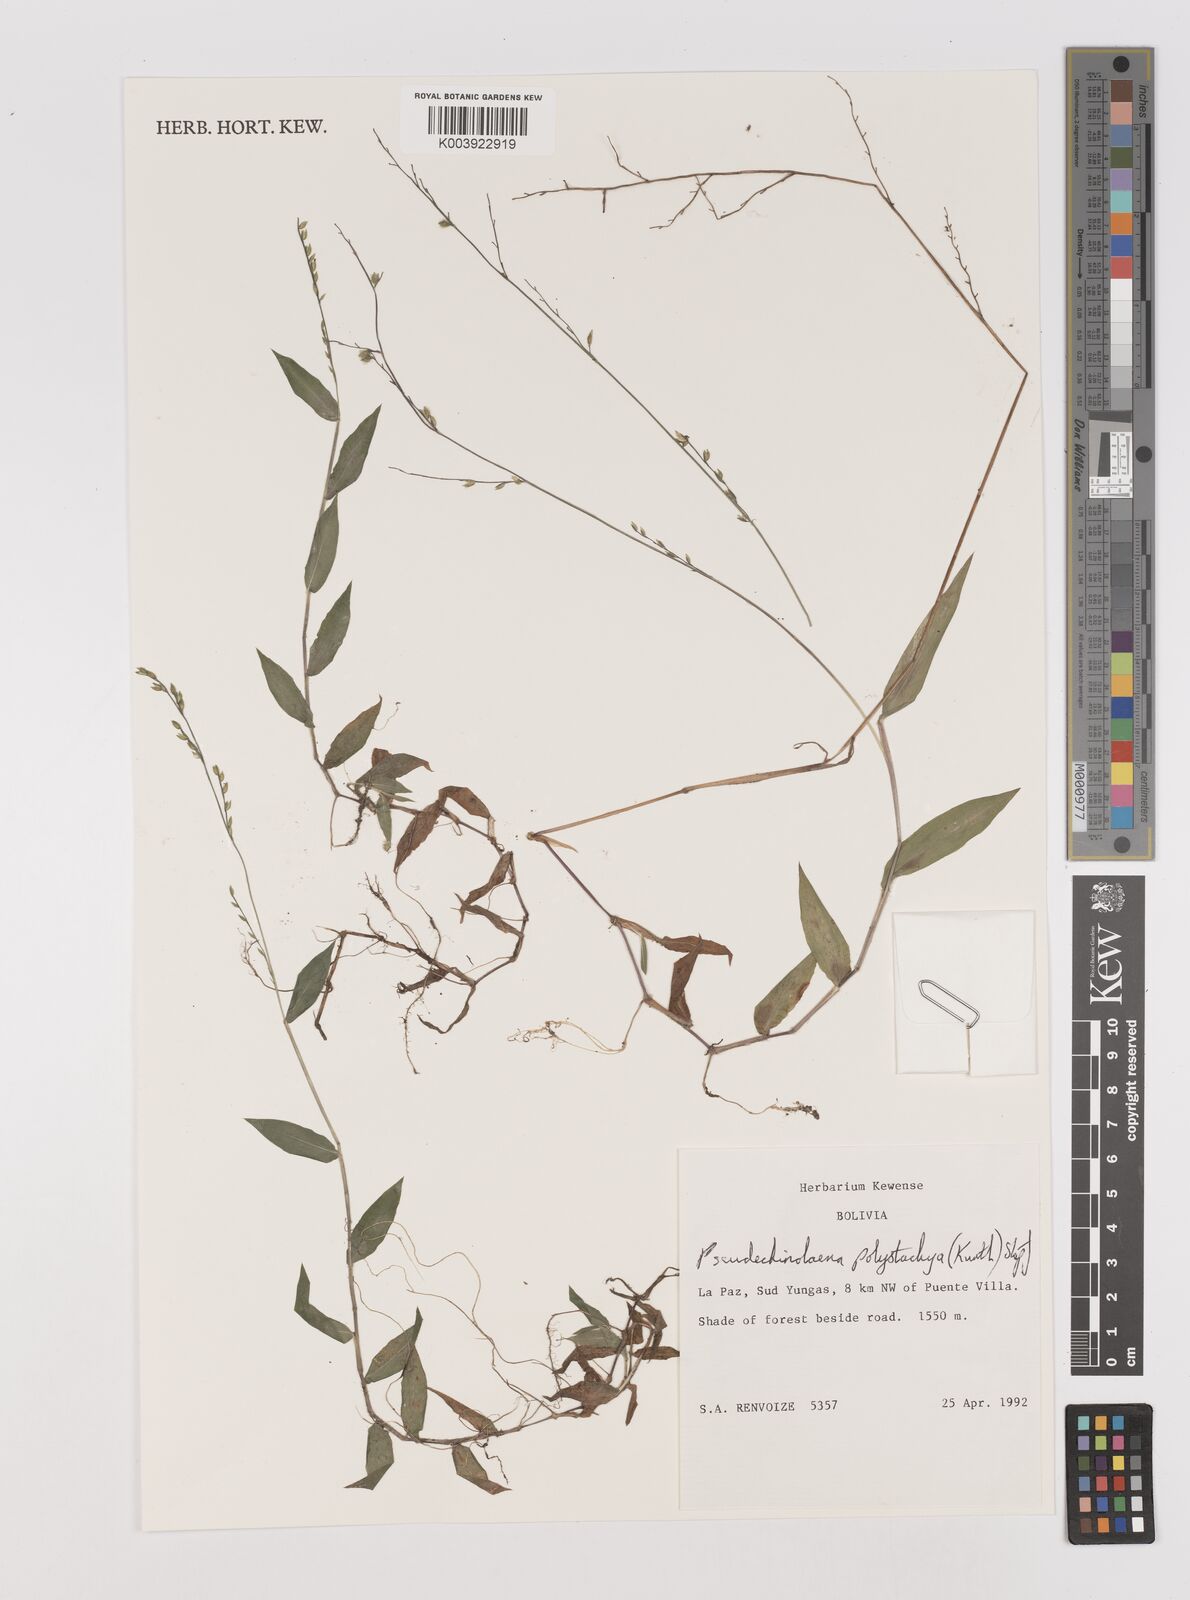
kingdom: Plantae
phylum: Tracheophyta
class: Liliopsida
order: Poales
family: Poaceae
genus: Pseudechinolaena
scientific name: Pseudechinolaena polystachya
